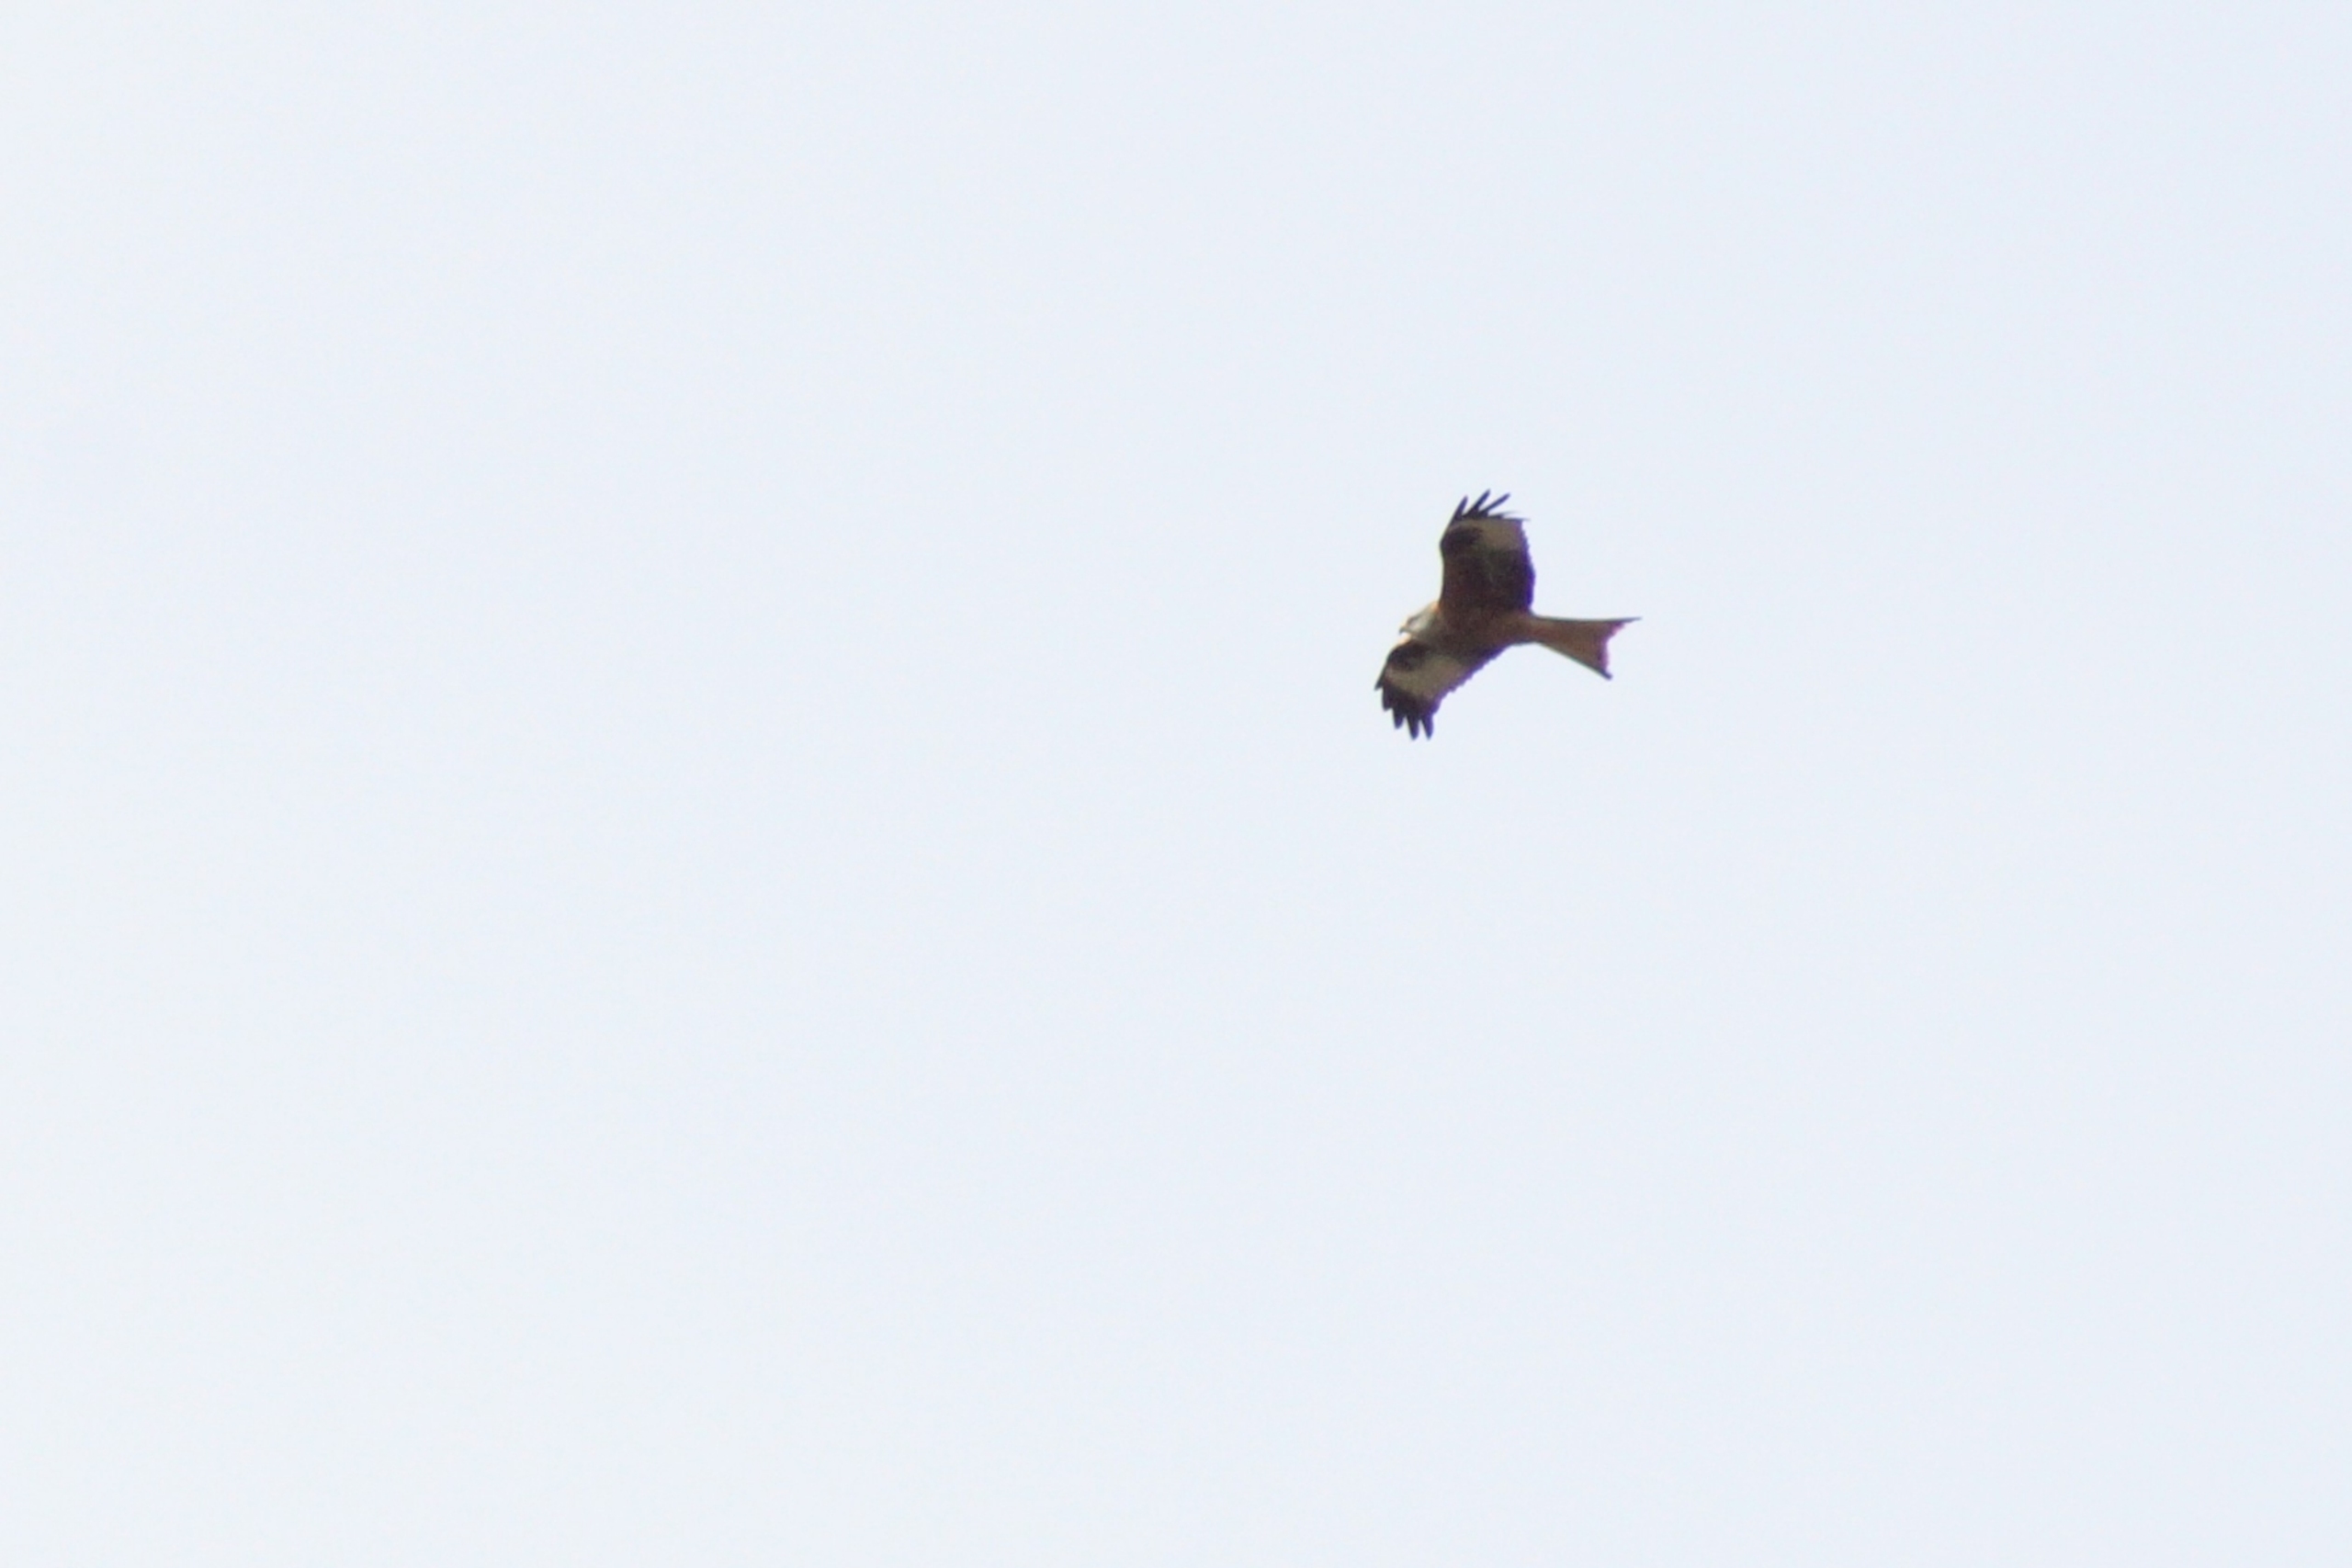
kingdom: Animalia
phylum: Chordata
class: Aves
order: Accipitriformes
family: Accipitridae
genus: Milvus
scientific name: Milvus milvus
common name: Rød glente
